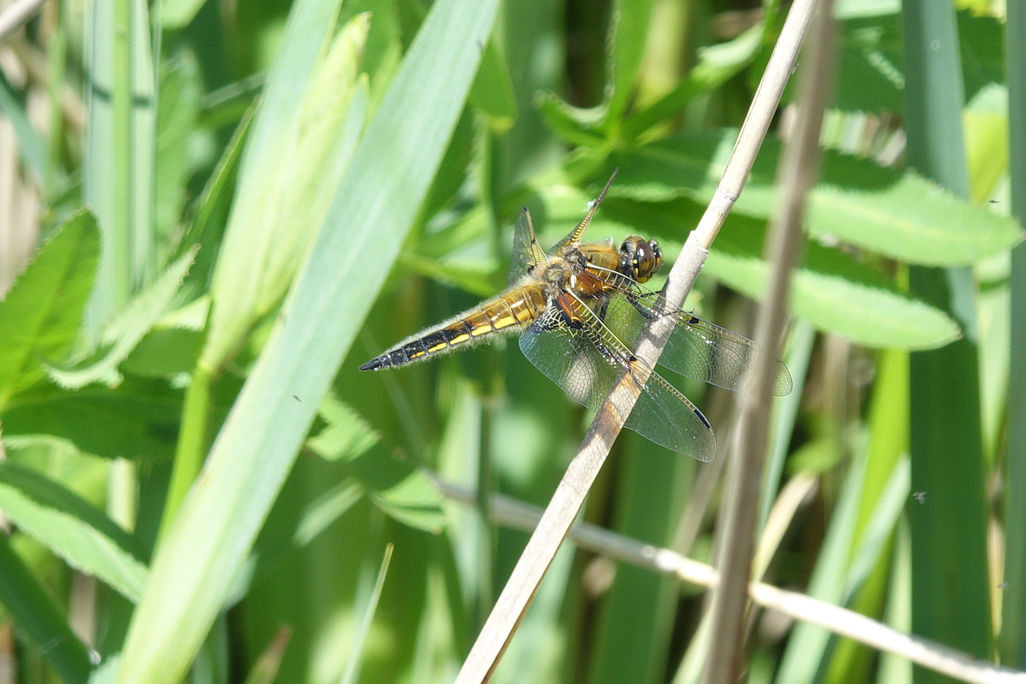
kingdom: Animalia
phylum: Arthropoda
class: Insecta
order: Odonata
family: Libellulidae
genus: Libellula
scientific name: Libellula quadrimaculata
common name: Fireplettet libel
